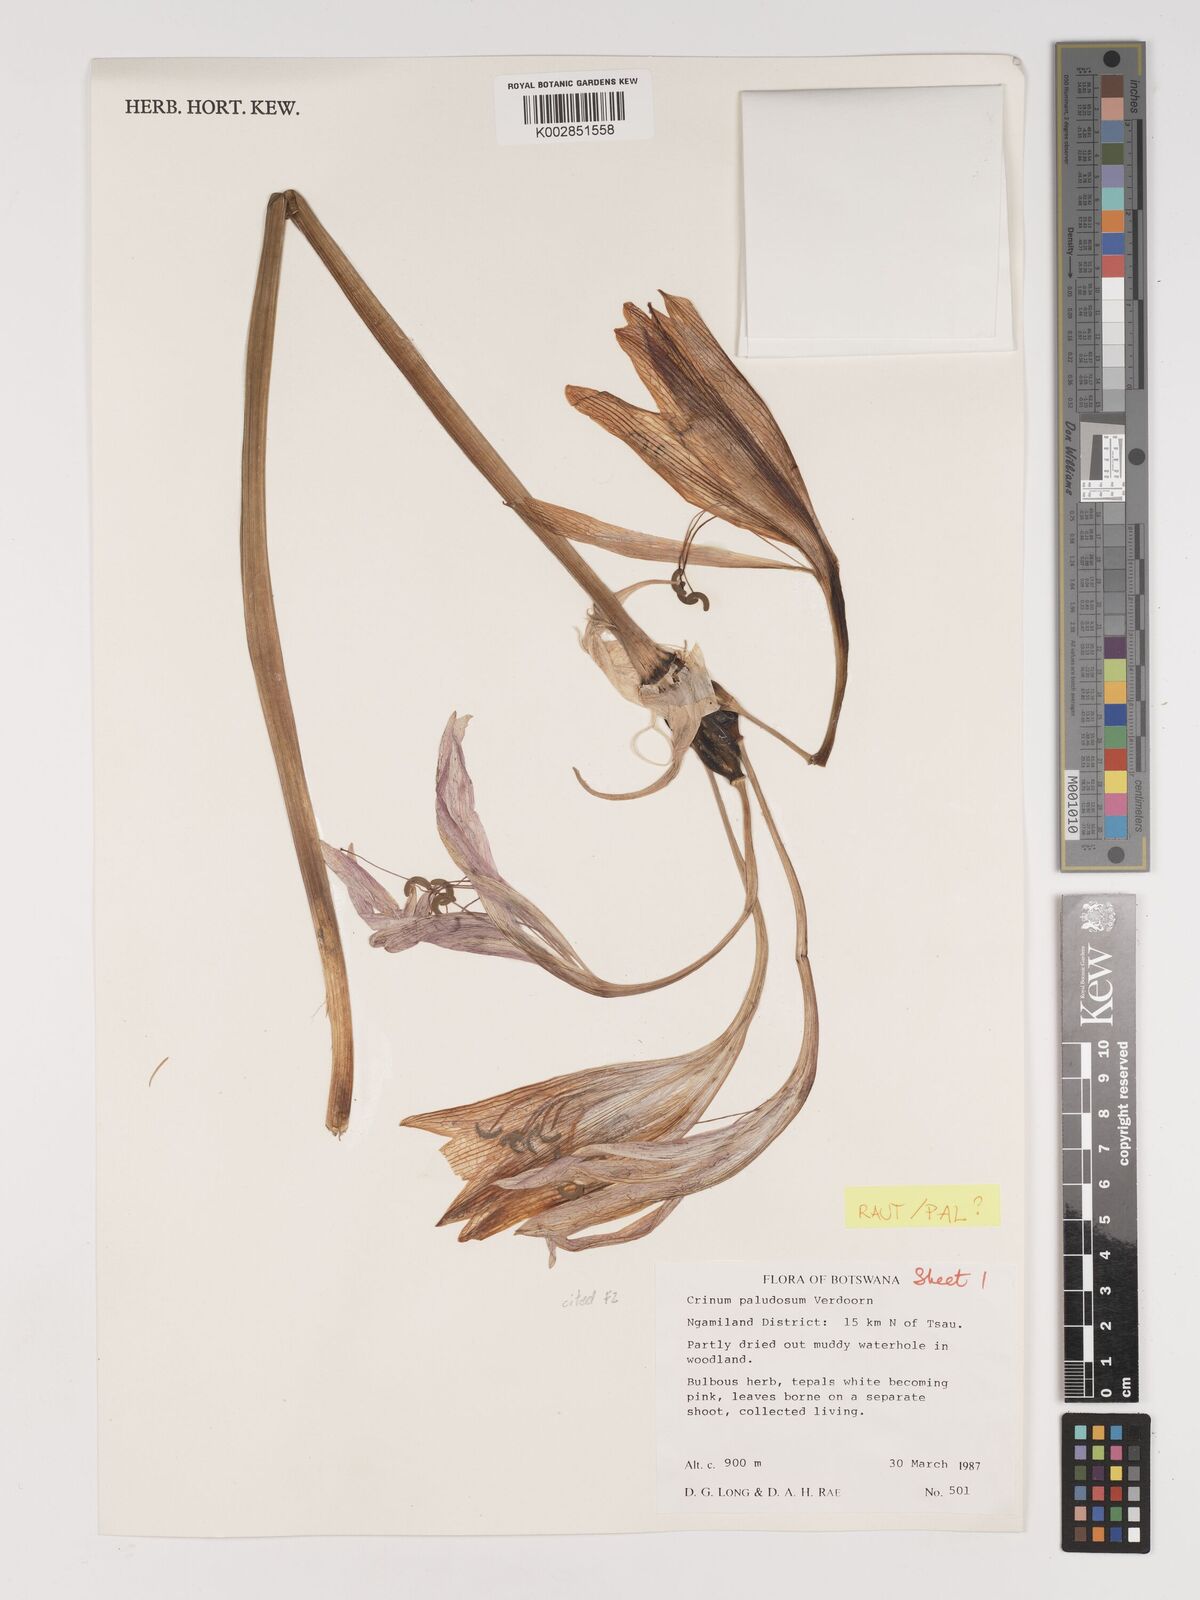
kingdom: Plantae
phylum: Tracheophyta
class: Liliopsida
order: Asparagales
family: Amaryllidaceae
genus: Crinum
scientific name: Crinum paludosum
